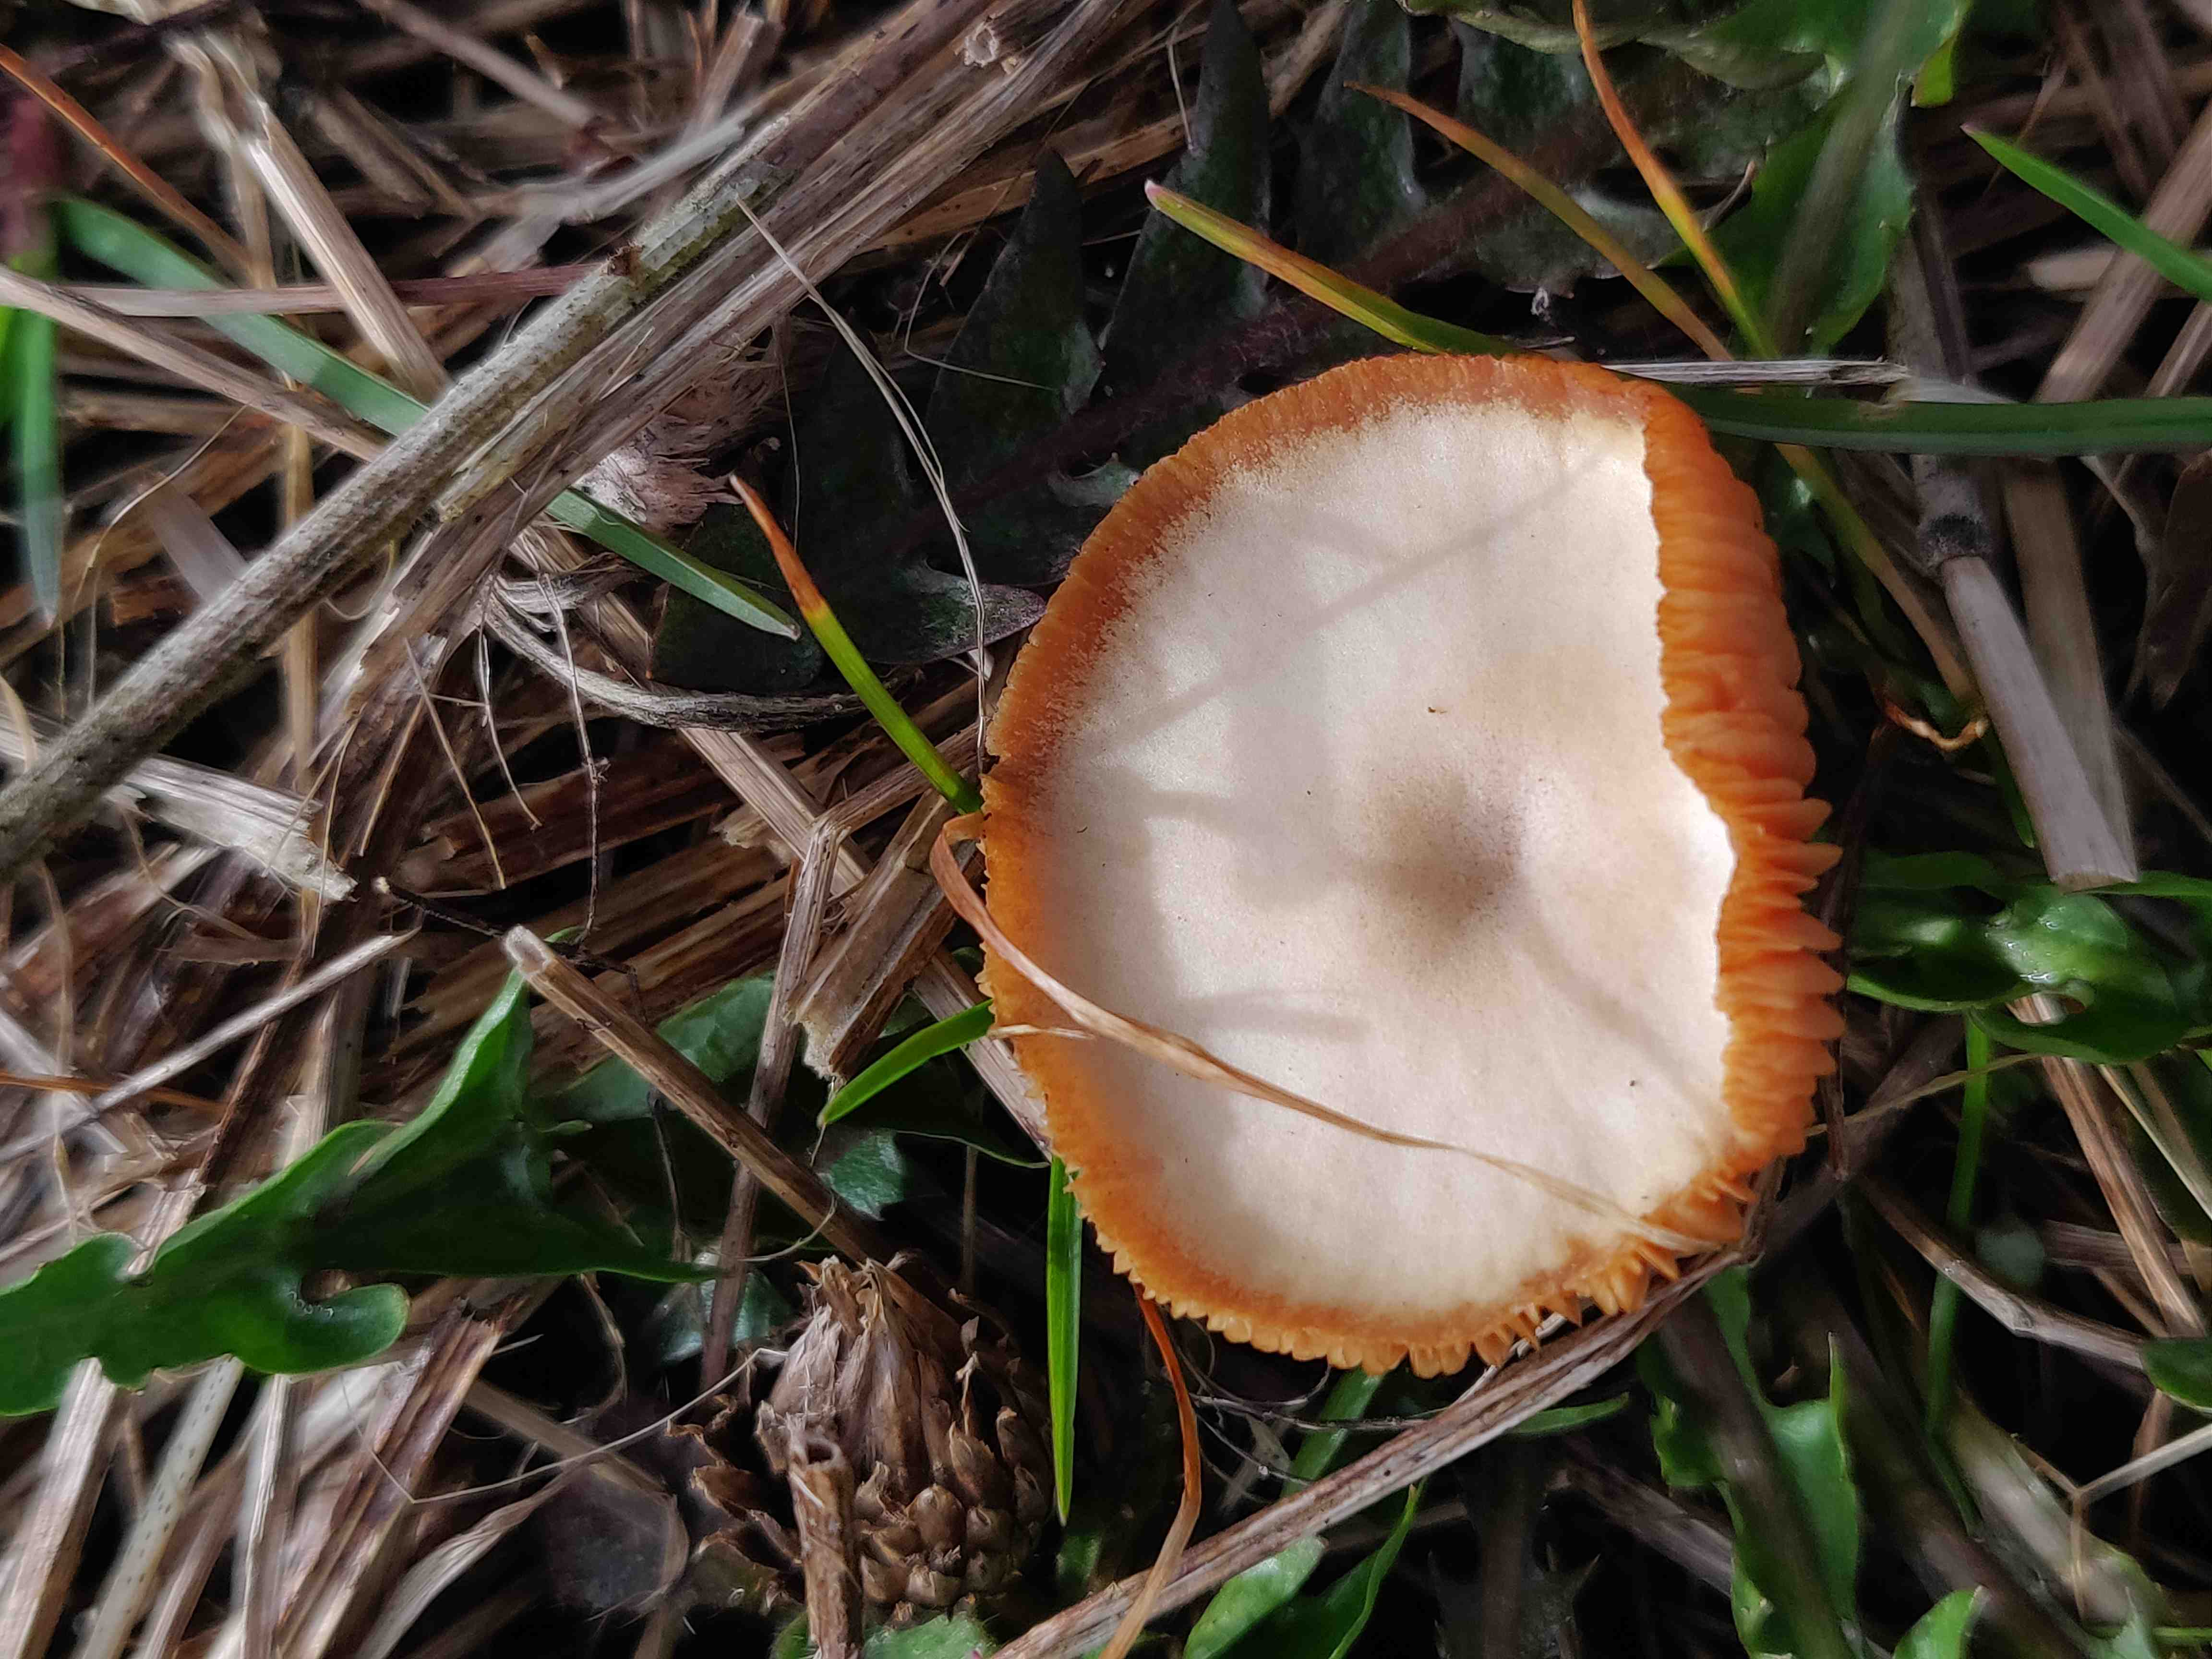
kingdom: Fungi
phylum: Basidiomycota
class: Agaricomycetes
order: Agaricales
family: Tubariaceae
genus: Tubaria
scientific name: Tubaria furfuracea
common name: kliddet fnughat
